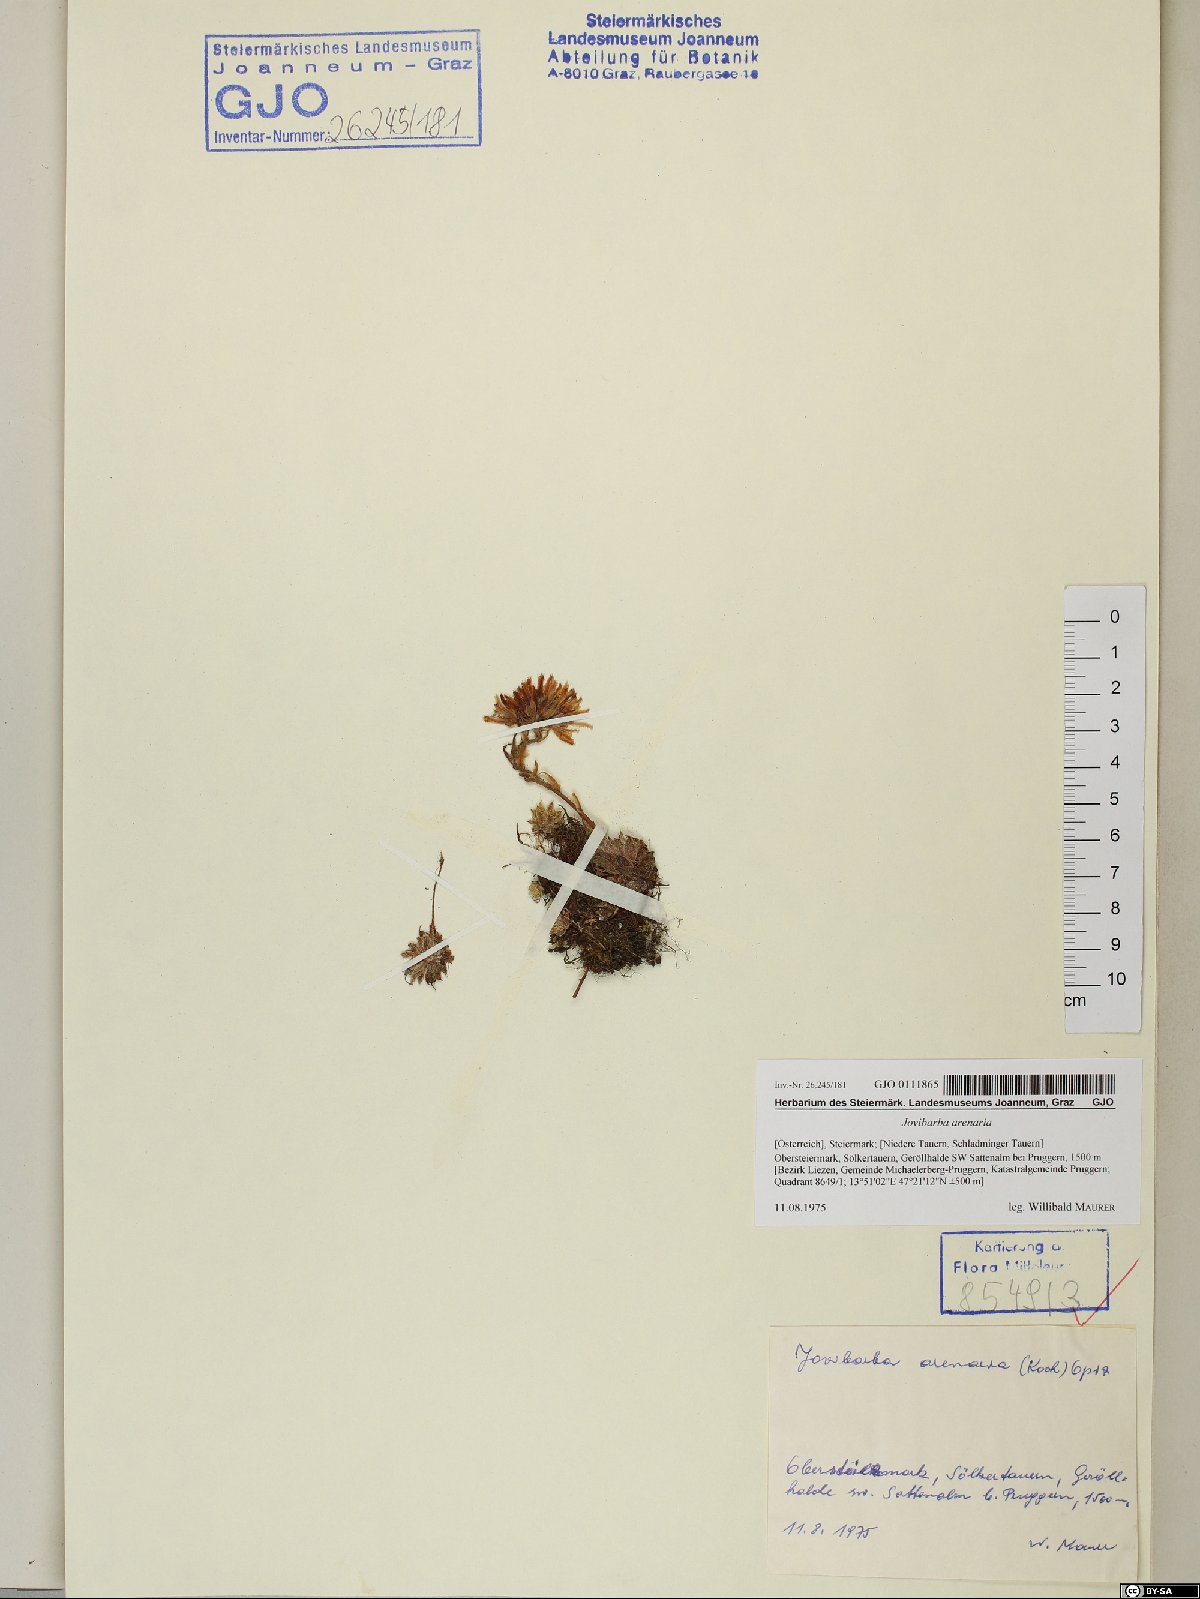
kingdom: Plantae
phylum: Tracheophyta
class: Magnoliopsida
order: Saxifragales
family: Crassulaceae
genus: Sempervivum
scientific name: Sempervivum globiferum
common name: Rolling hen-and-chicks
